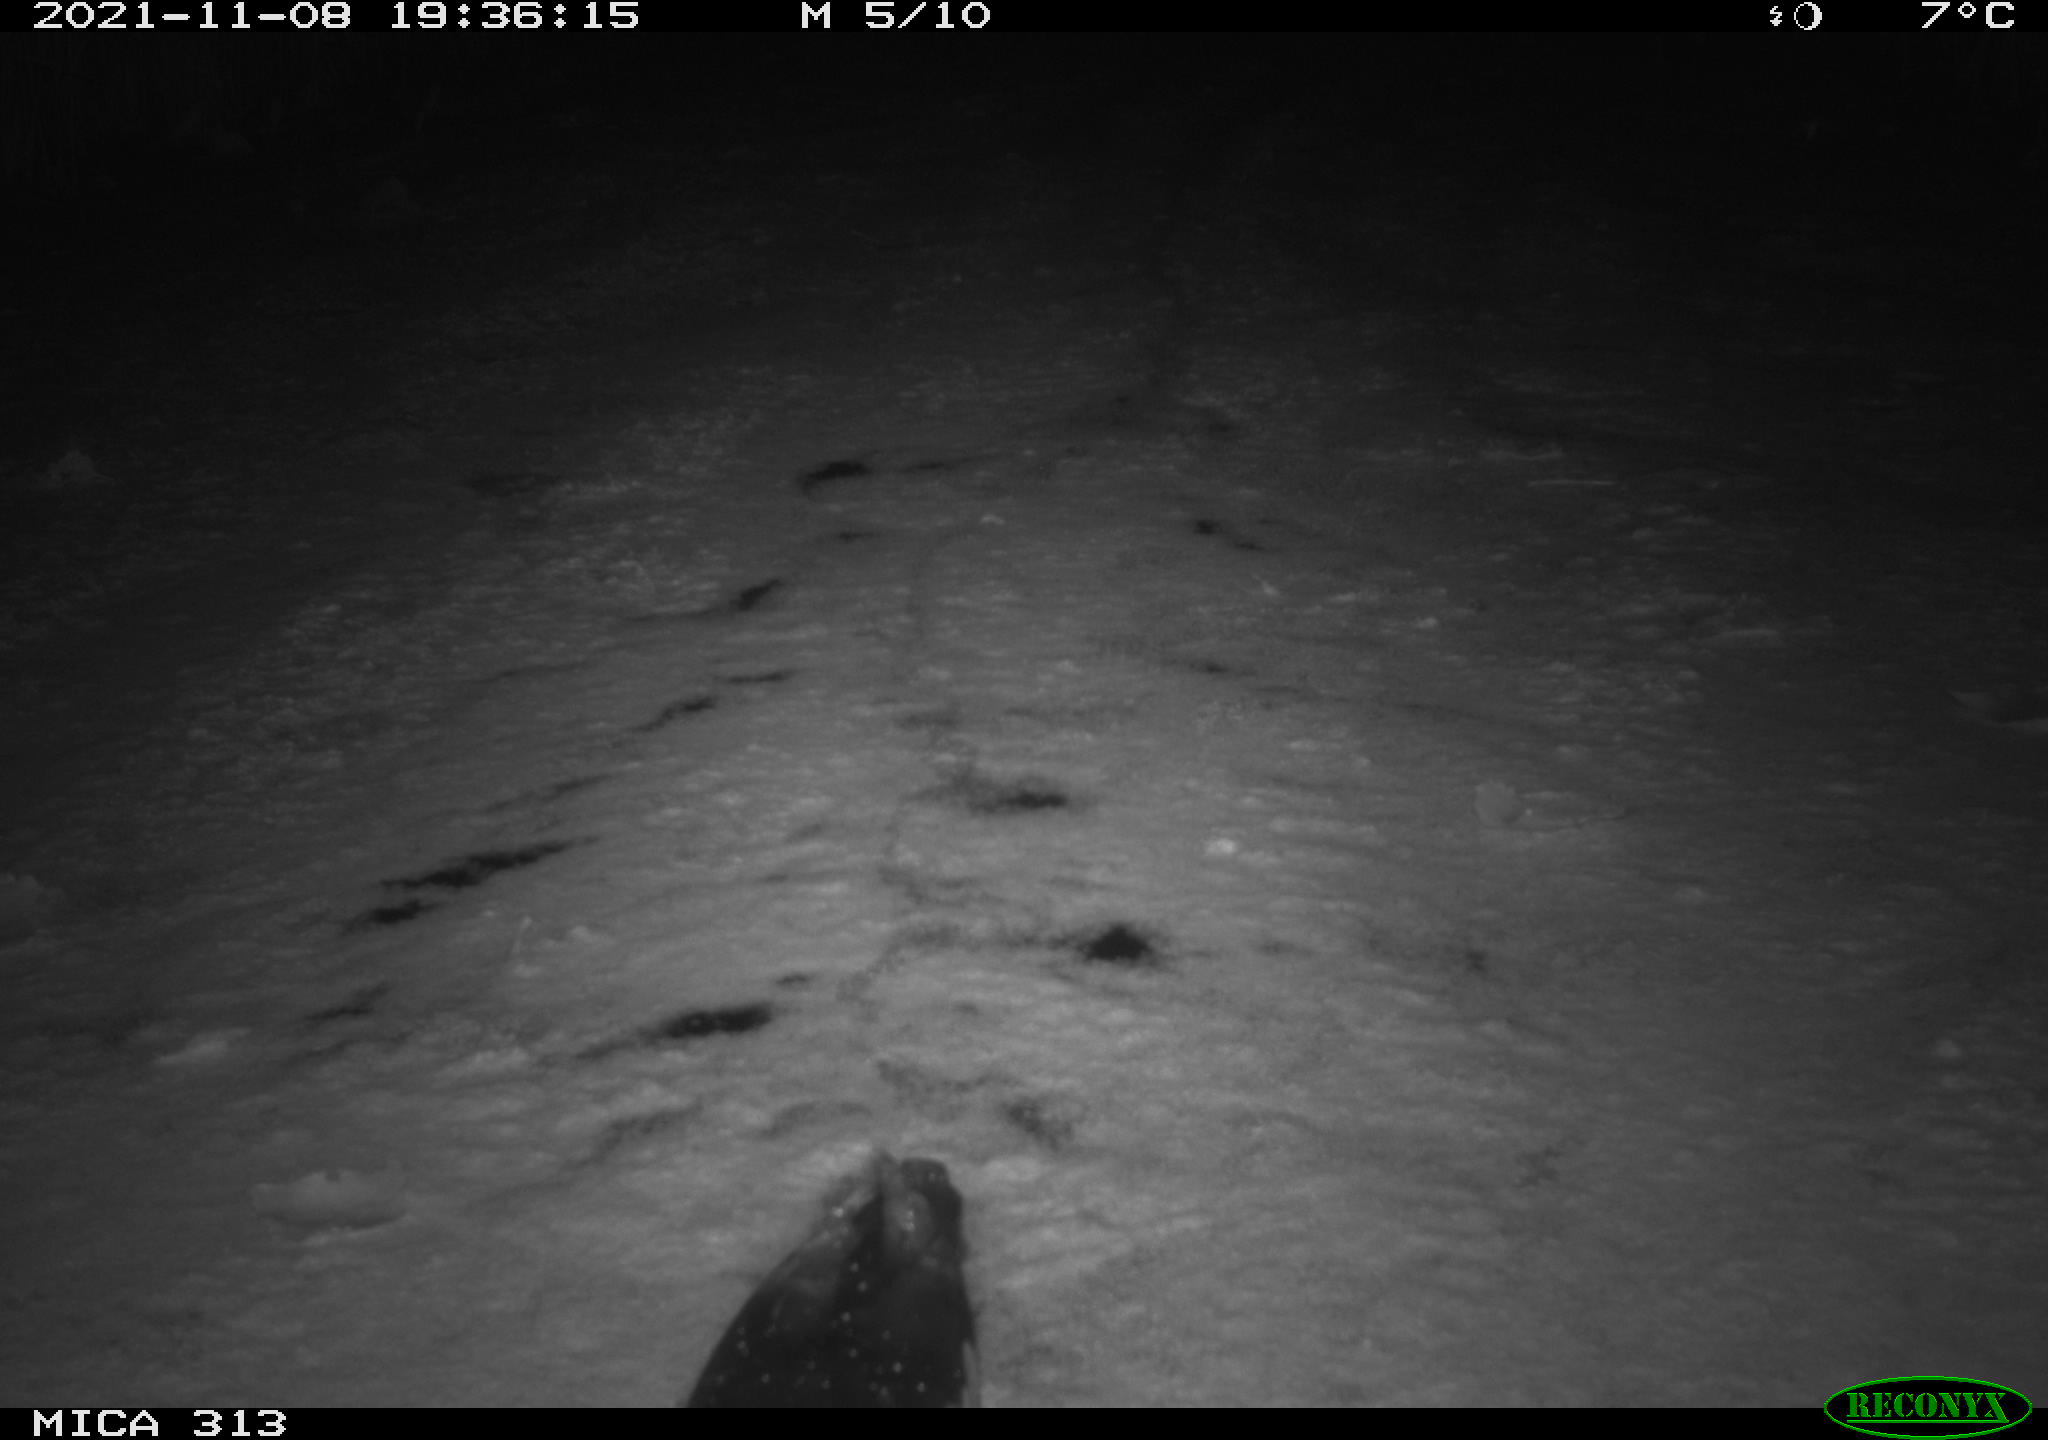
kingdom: Animalia
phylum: Chordata
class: Aves
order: Gruiformes
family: Rallidae
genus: Gallinula
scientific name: Gallinula chloropus
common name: Common moorhen
